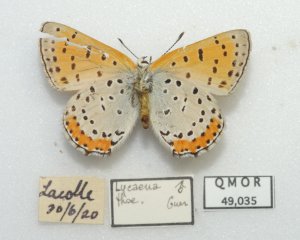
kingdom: Animalia
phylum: Arthropoda
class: Insecta
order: Lepidoptera
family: Sesiidae
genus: Sesia
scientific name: Sesia Lycaena hyllus
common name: Bronze Copper
